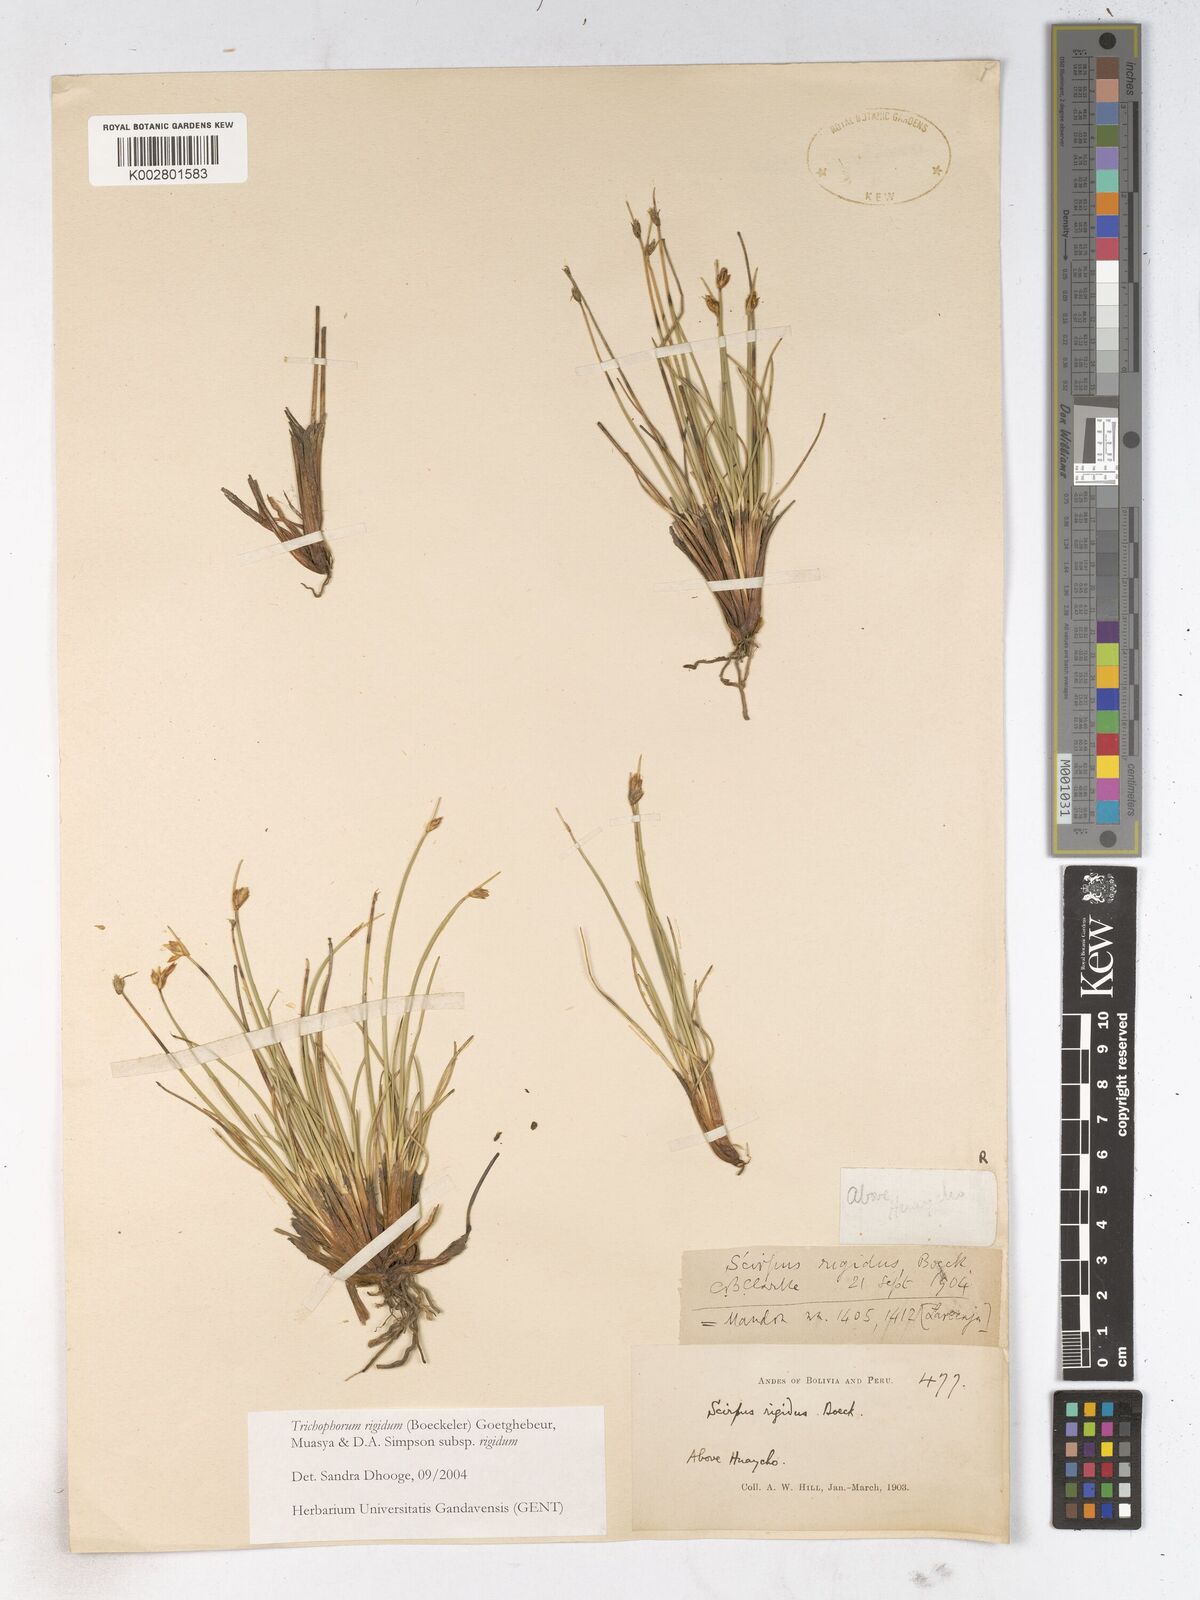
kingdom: Plantae
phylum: Tracheophyta
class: Liliopsida
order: Poales
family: Cyperaceae
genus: Trichophorum
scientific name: Trichophorum rigidum
